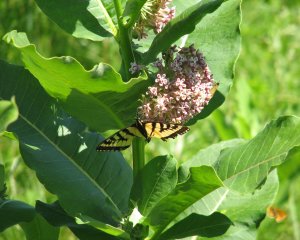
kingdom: Animalia
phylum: Arthropoda
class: Insecta
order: Lepidoptera
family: Papilionidae
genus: Pterourus
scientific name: Pterourus canadensis
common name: Canadian Tiger Swallowtail
